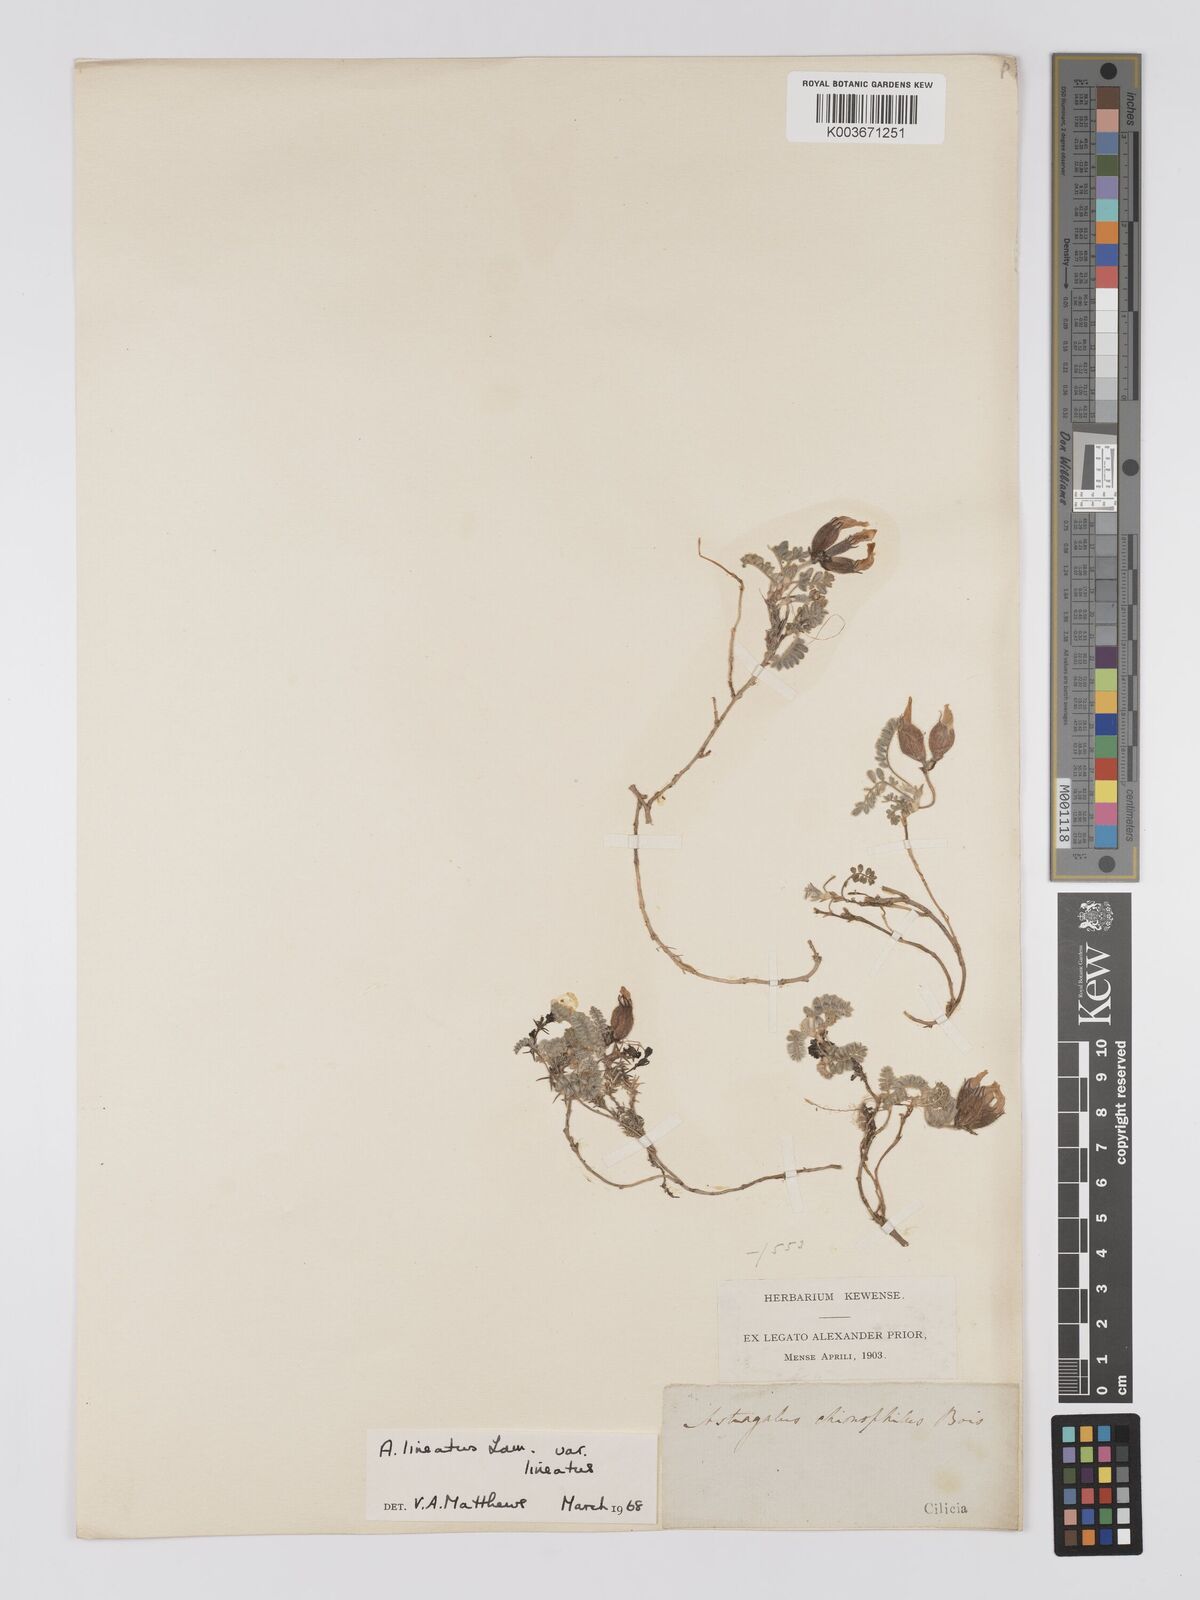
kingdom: Plantae
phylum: Tracheophyta
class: Magnoliopsida
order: Fabales
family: Fabaceae
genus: Astragalus
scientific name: Astragalus lineatus
